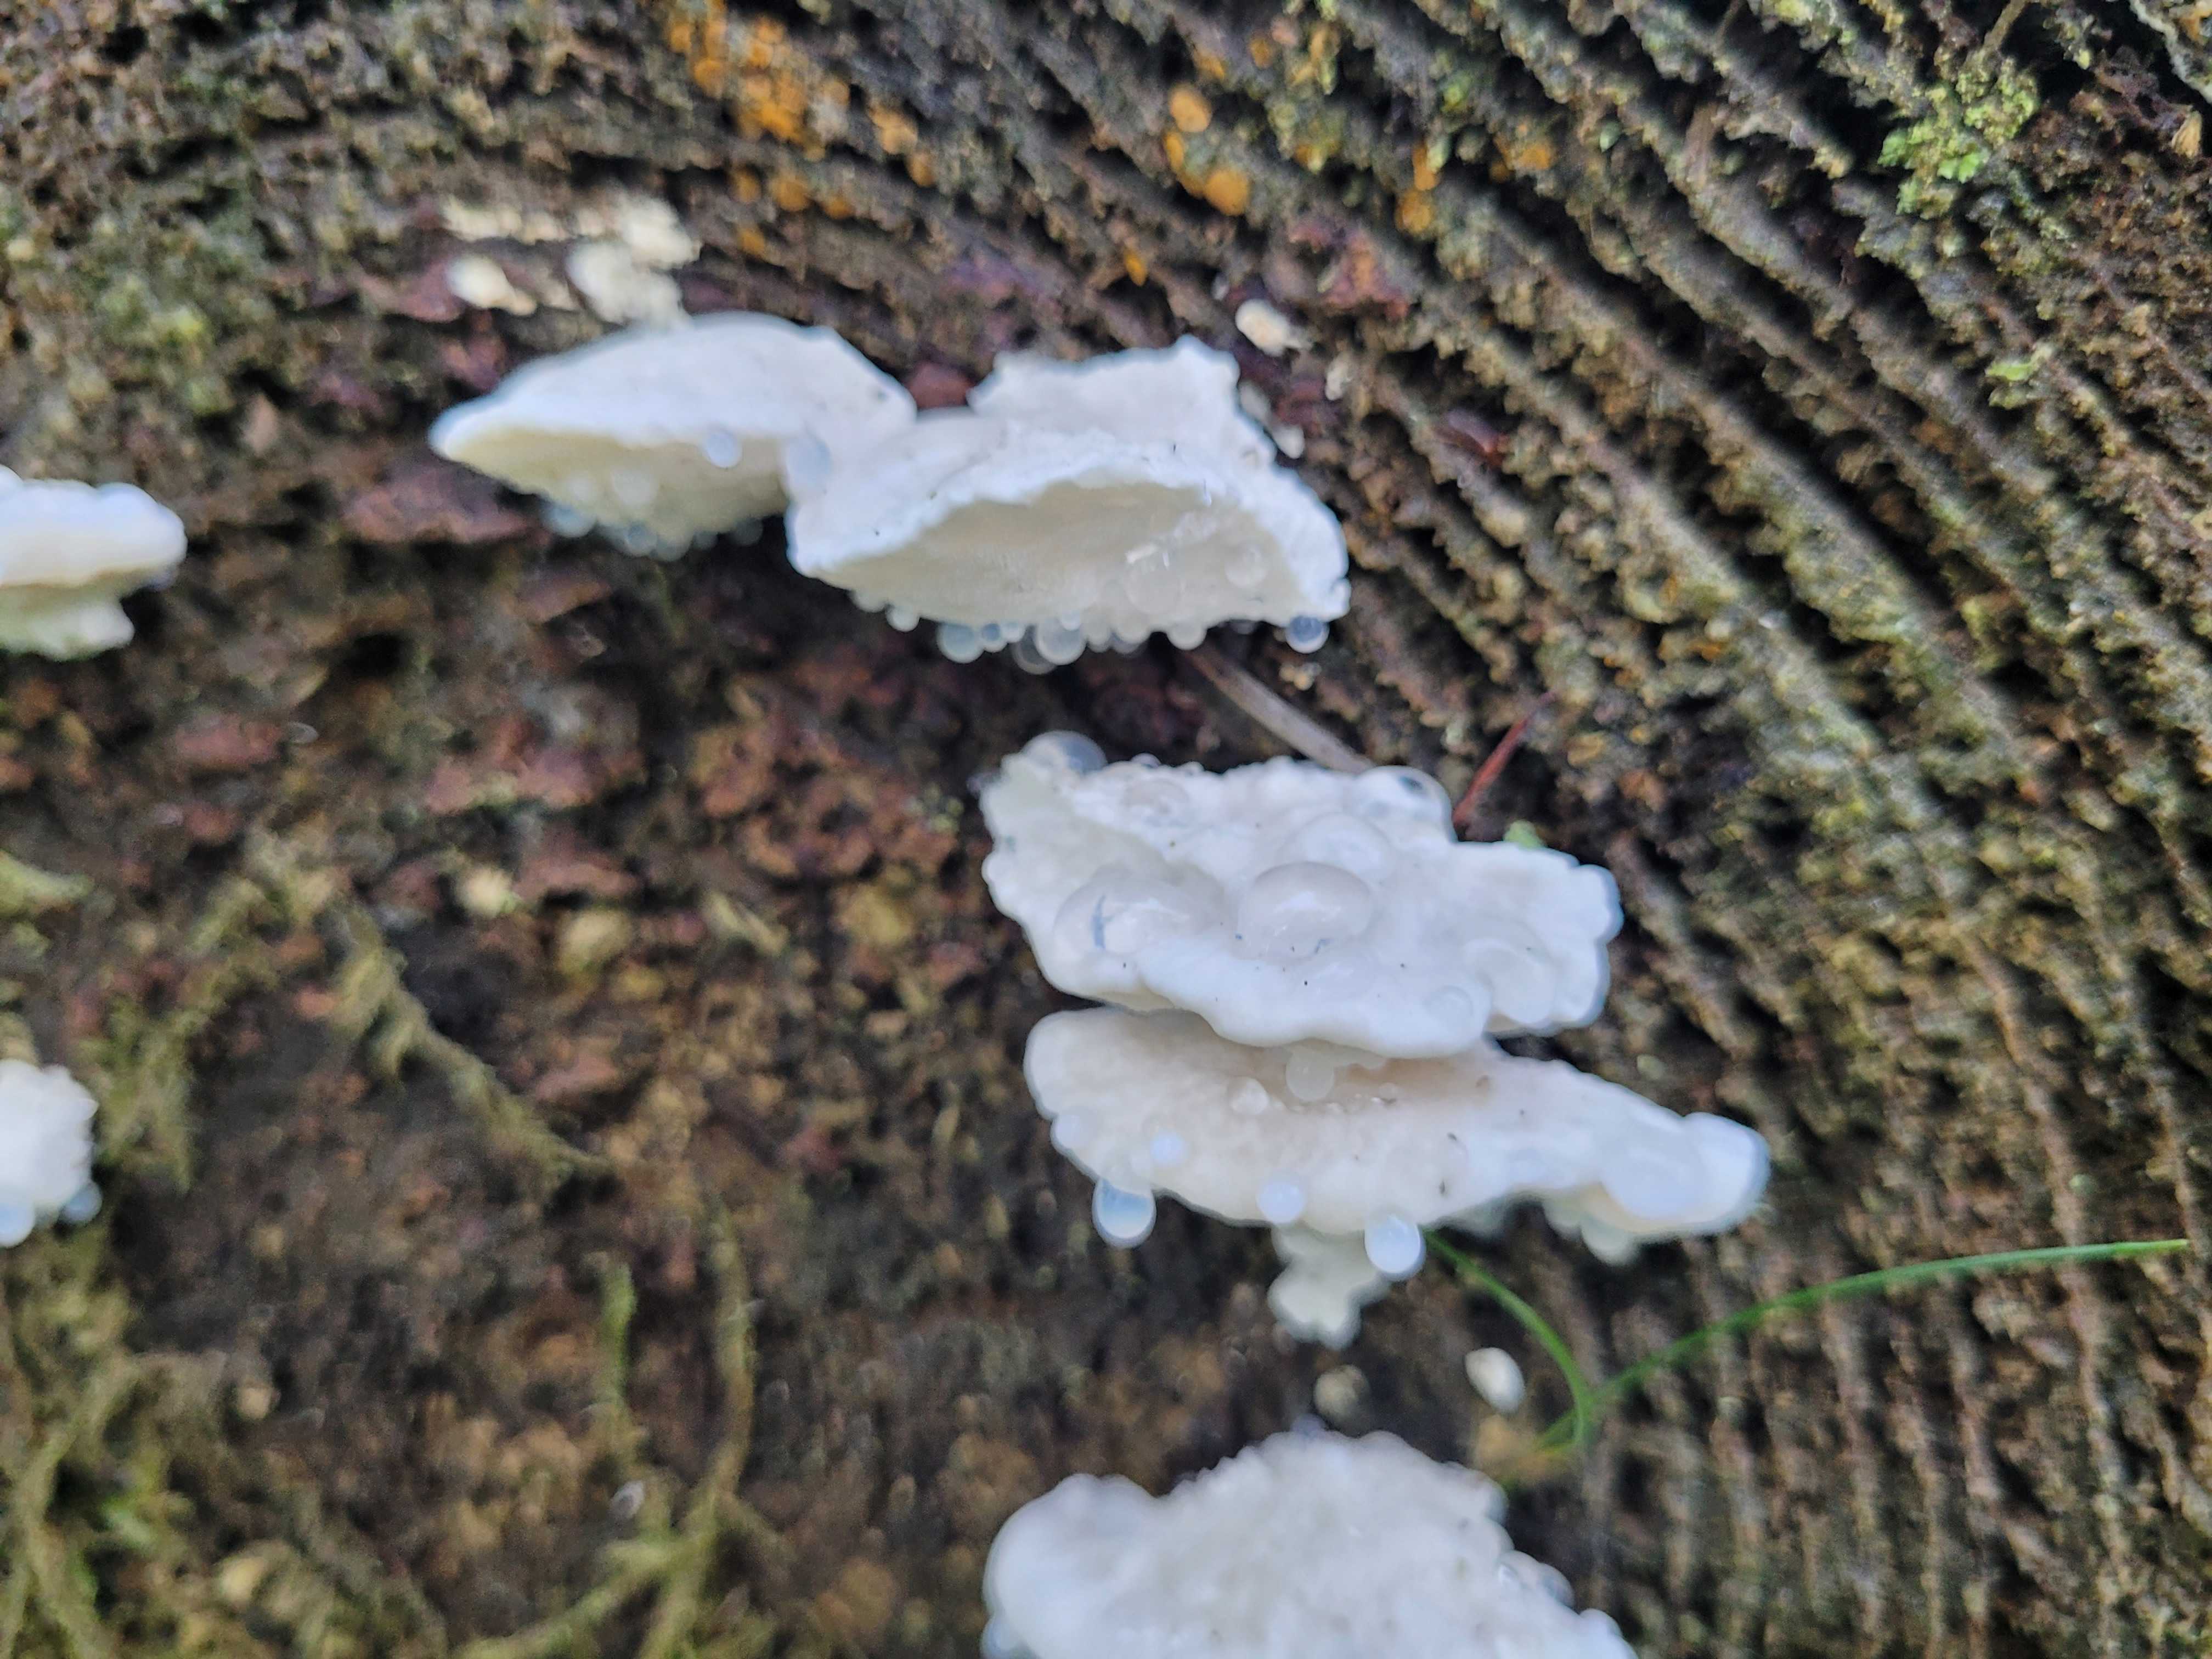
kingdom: Fungi
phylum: Basidiomycota
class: Agaricomycetes
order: Polyporales
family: Polyporaceae
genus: Cyanosporus
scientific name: Cyanosporus caesius
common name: blålig kødporesvamp
